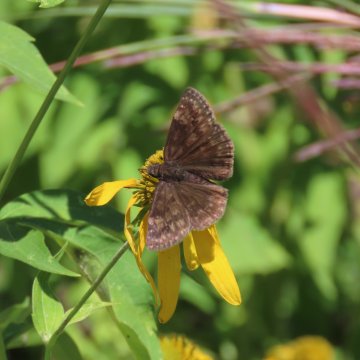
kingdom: Animalia
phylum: Arthropoda
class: Insecta
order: Lepidoptera
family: Hesperiidae
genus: Gesta
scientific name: Gesta
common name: Wild Indigo Duskywing
